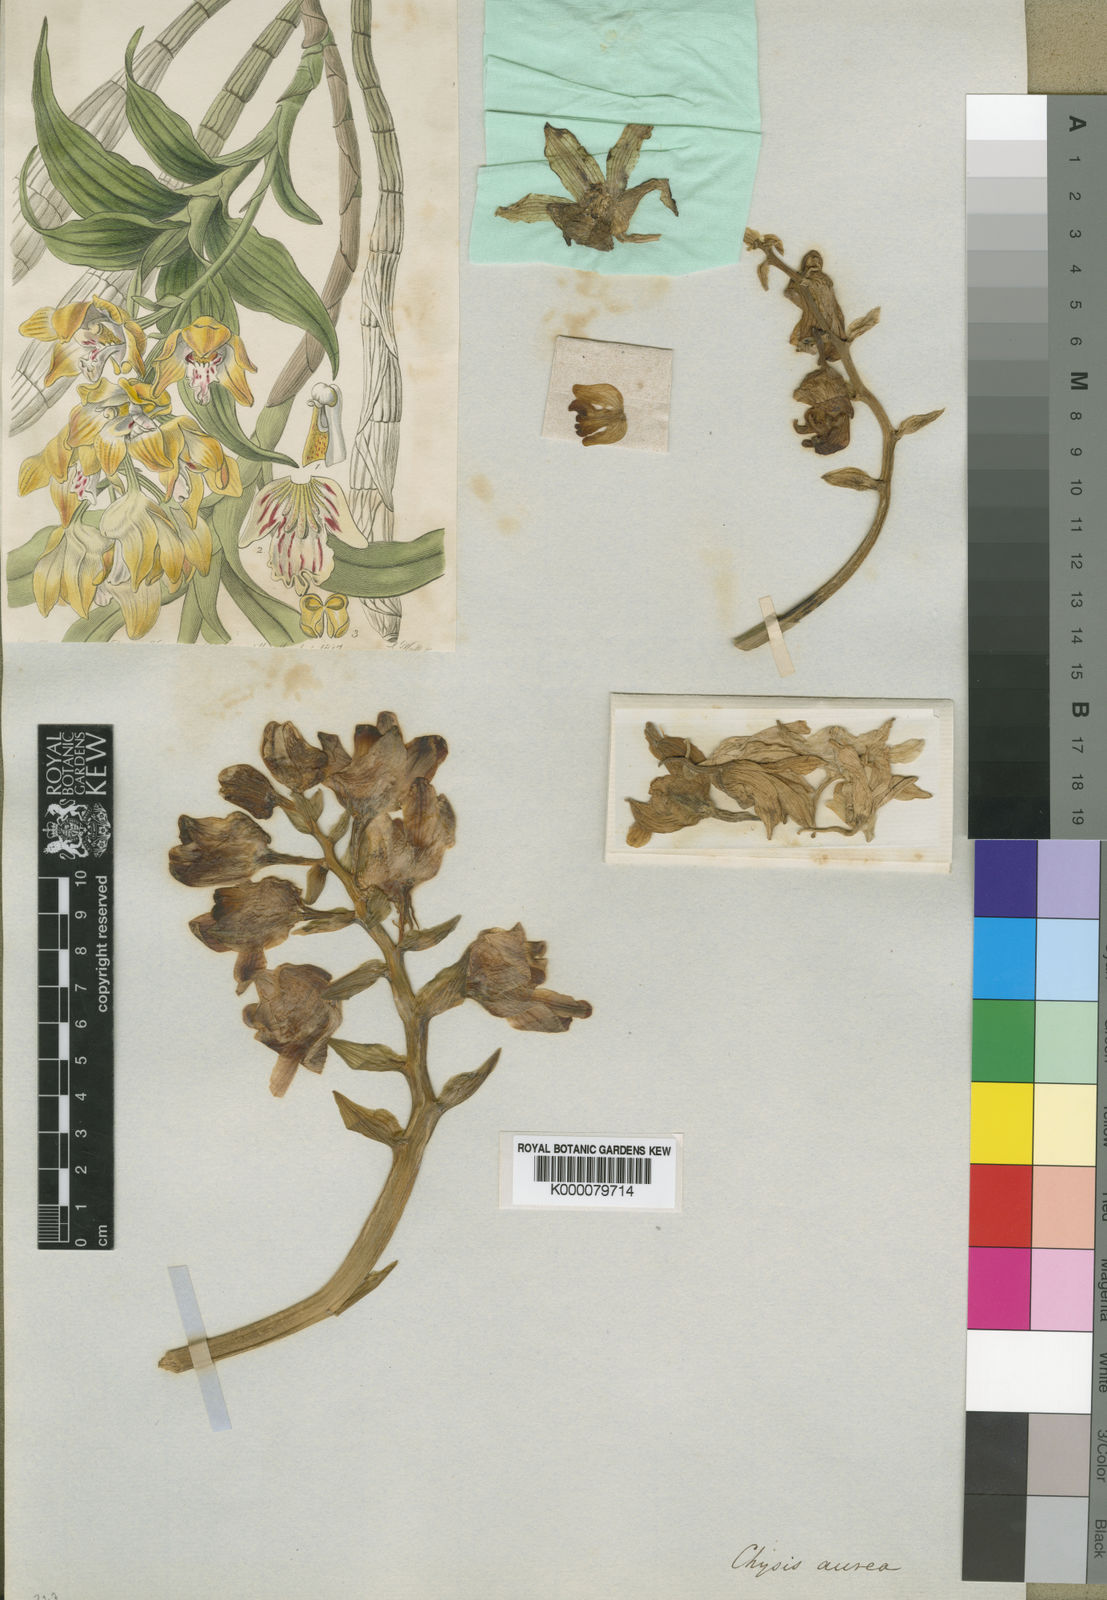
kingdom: Plantae
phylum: Tracheophyta
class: Liliopsida
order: Asparagales
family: Orchidaceae
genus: Chysis
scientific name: Chysis aurea
